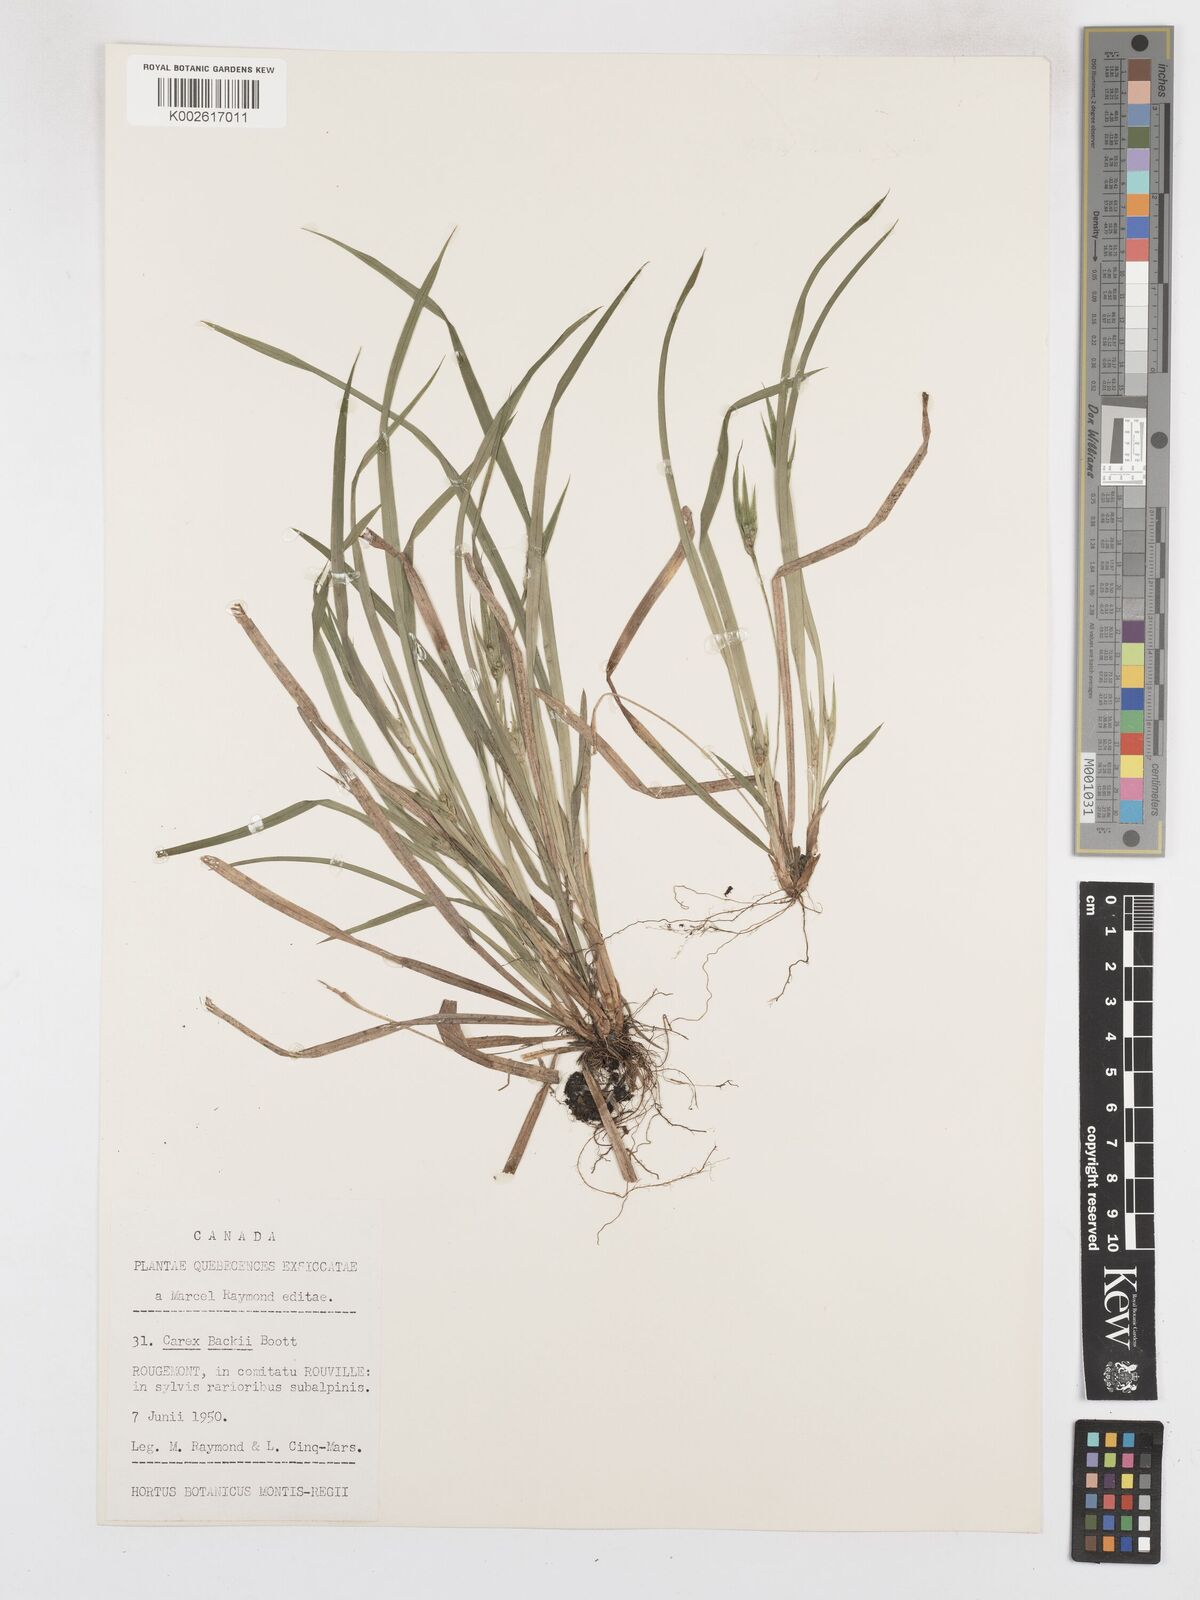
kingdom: Plantae
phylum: Tracheophyta
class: Liliopsida
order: Poales
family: Cyperaceae
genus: Carex
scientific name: Carex backii
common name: Back's sedge
